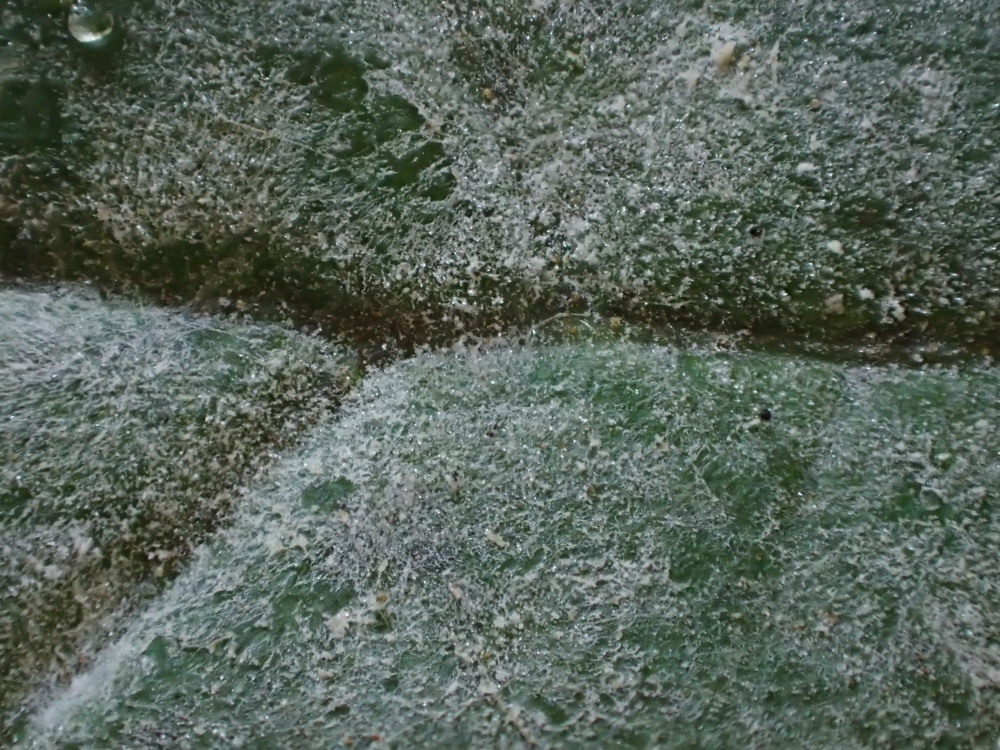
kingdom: Fungi
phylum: Ascomycota
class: Leotiomycetes
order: Helotiales
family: Erysiphaceae
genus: Sawadaea
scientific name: Sawadaea bicornis
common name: Maple mildew
